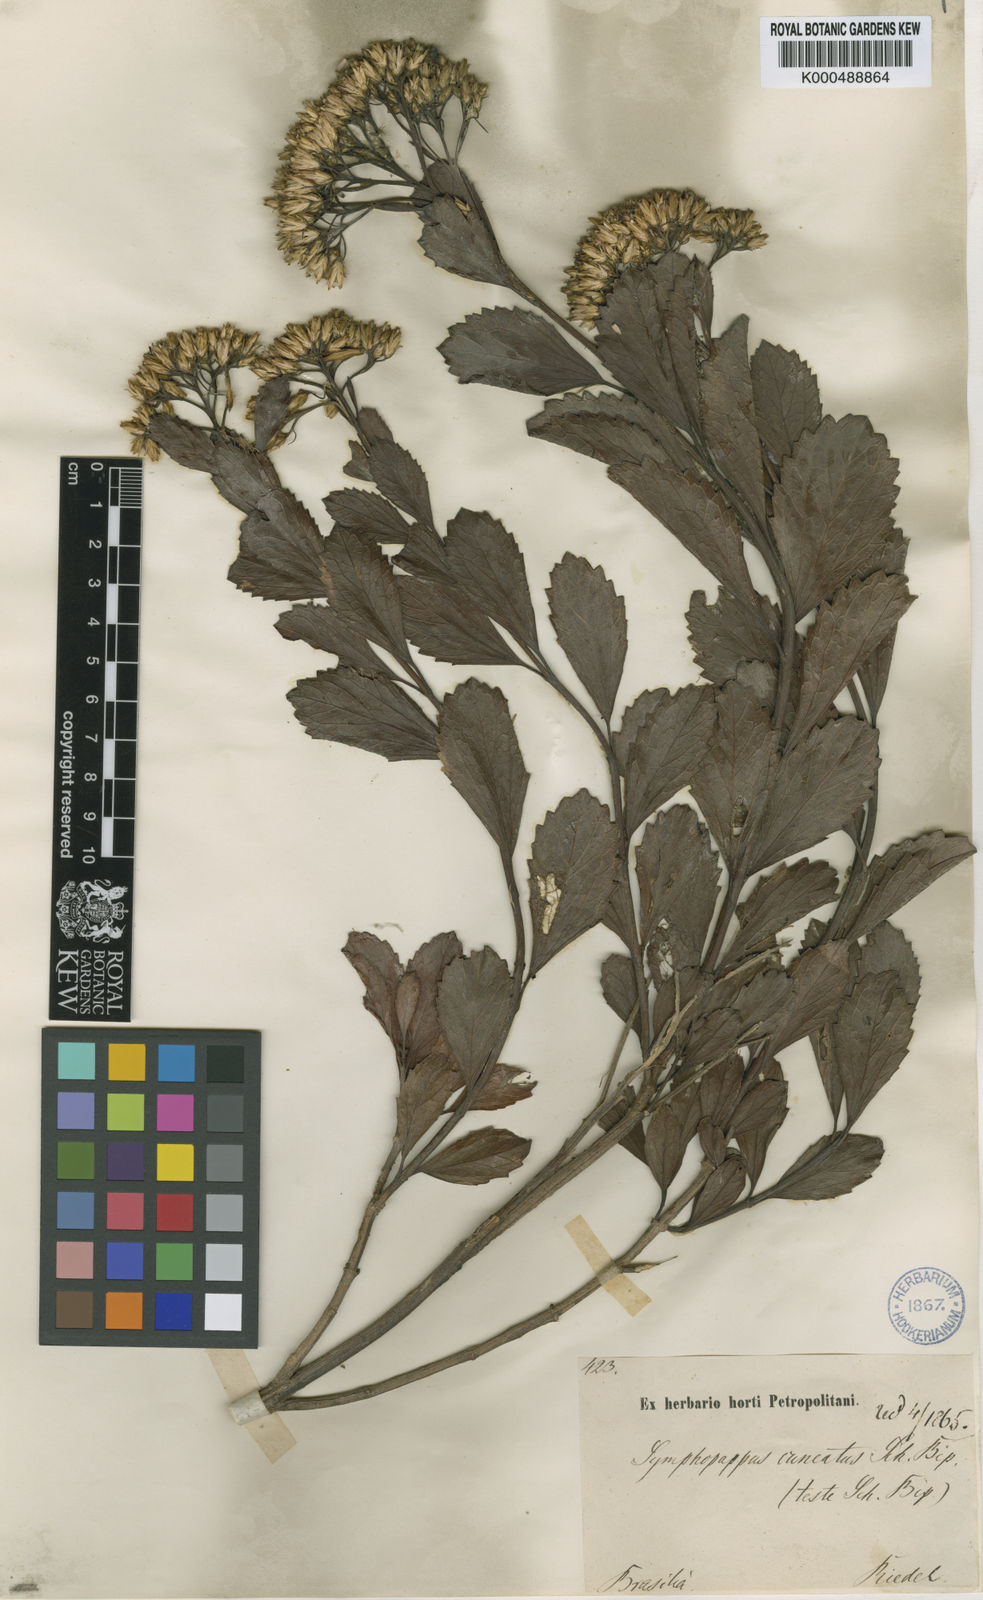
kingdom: Plantae
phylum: Tracheophyta
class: Magnoliopsida
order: Asterales
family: Asteraceae
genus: Symphyopappus
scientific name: Symphyopappus cuneatus
